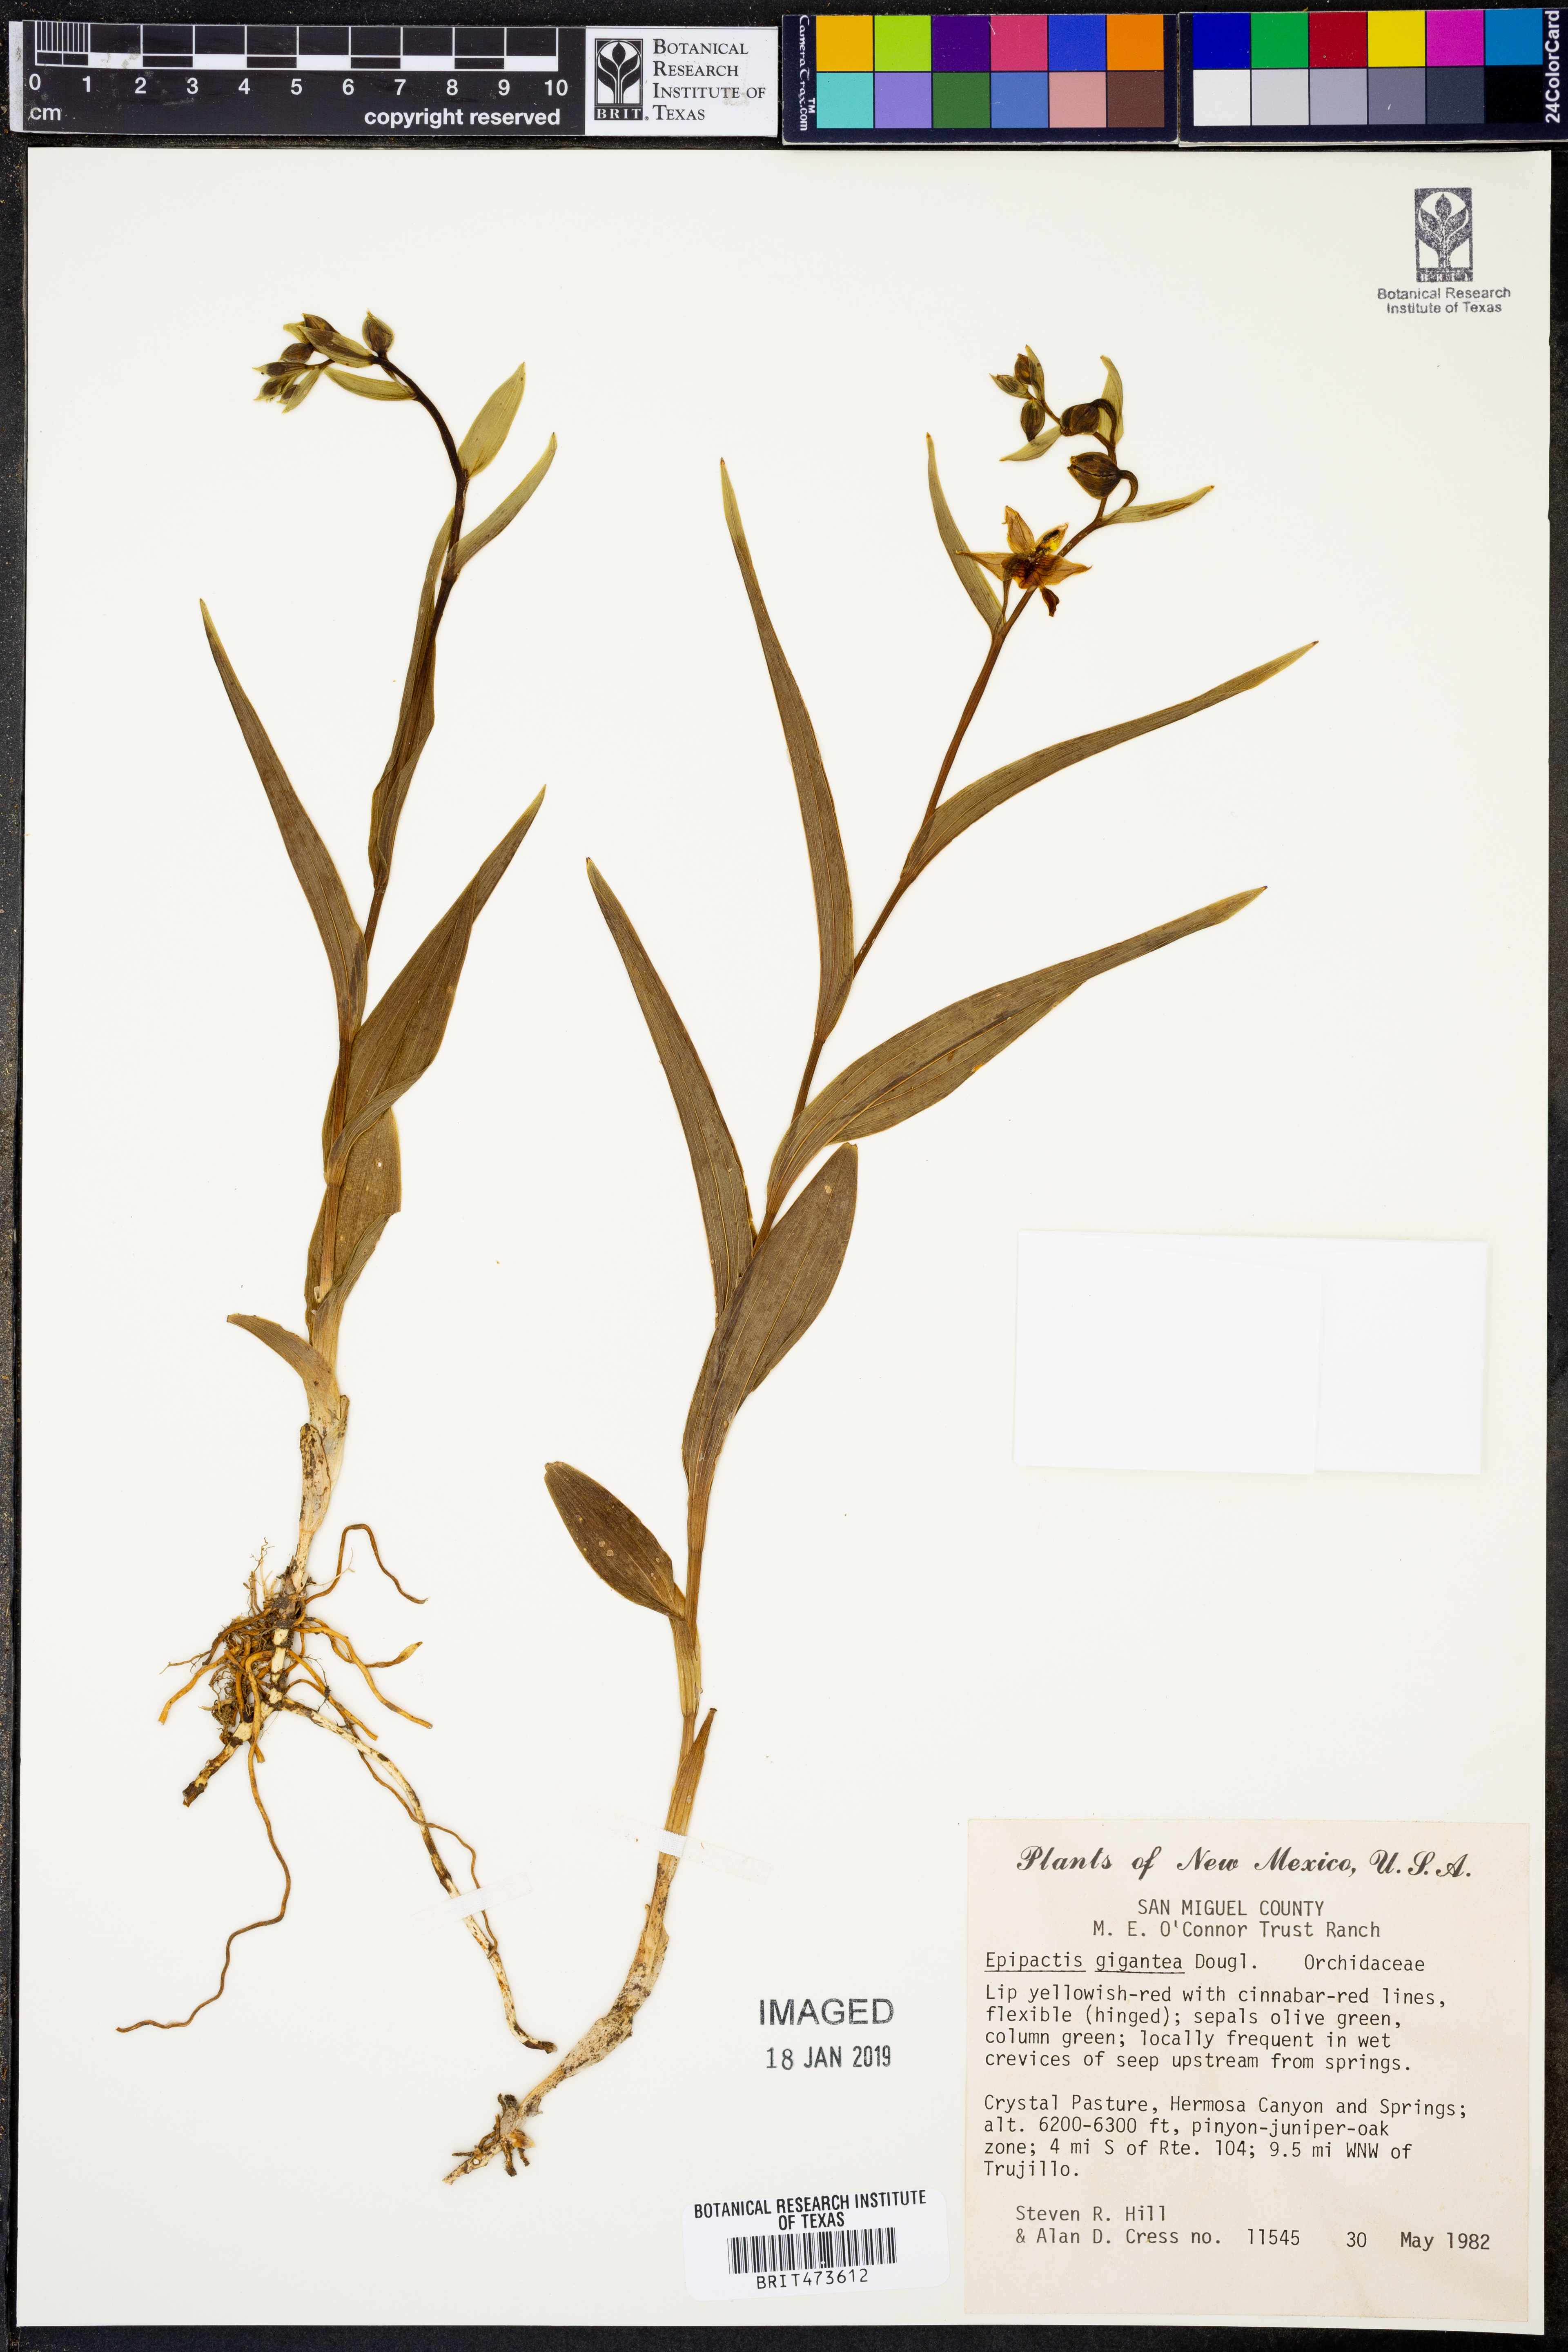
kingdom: Plantae
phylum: Tracheophyta
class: Liliopsida
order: Asparagales
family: Orchidaceae
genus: Epipactis
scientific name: Epipactis gigantea
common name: Chatterbox
